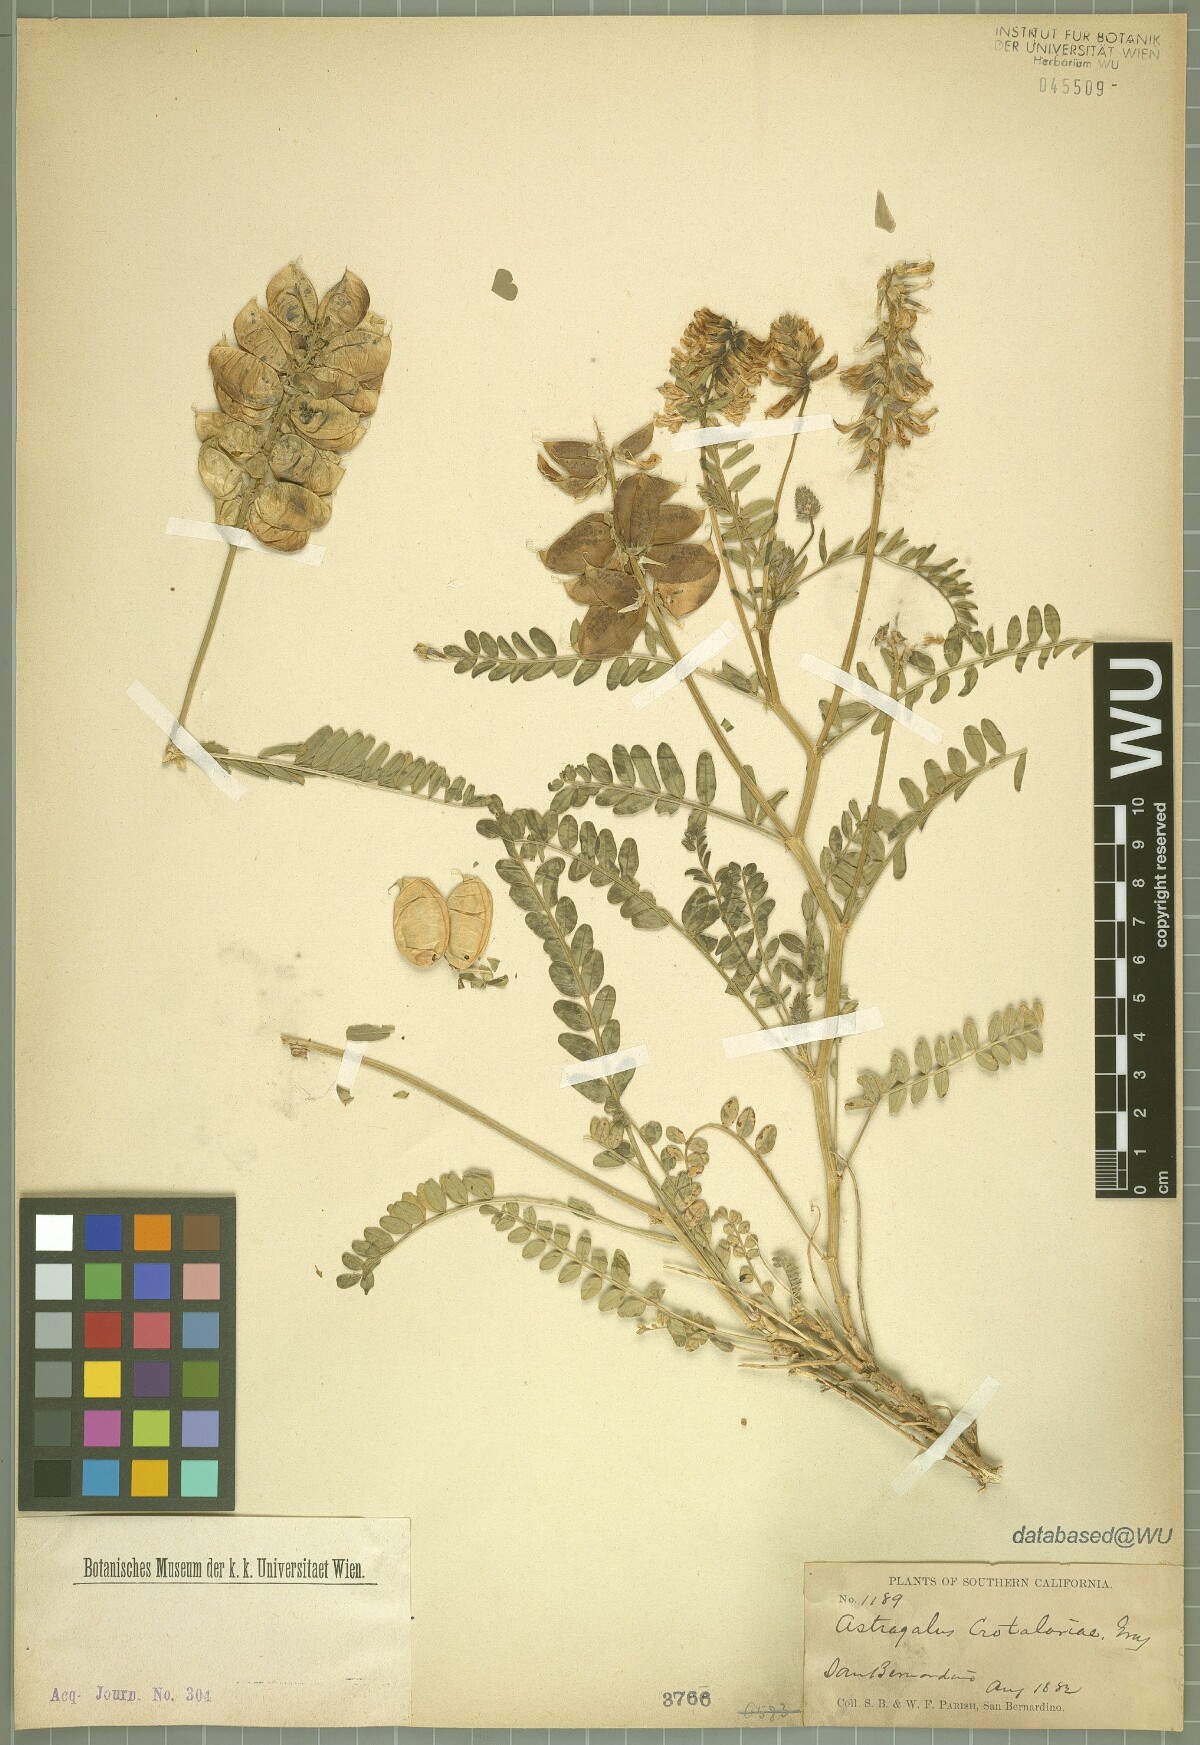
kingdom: Plantae
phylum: Tracheophyta
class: Magnoliopsida
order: Fabales
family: Fabaceae
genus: Astragalus
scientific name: Astragalus crotalariae
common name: Salton milkvetch
